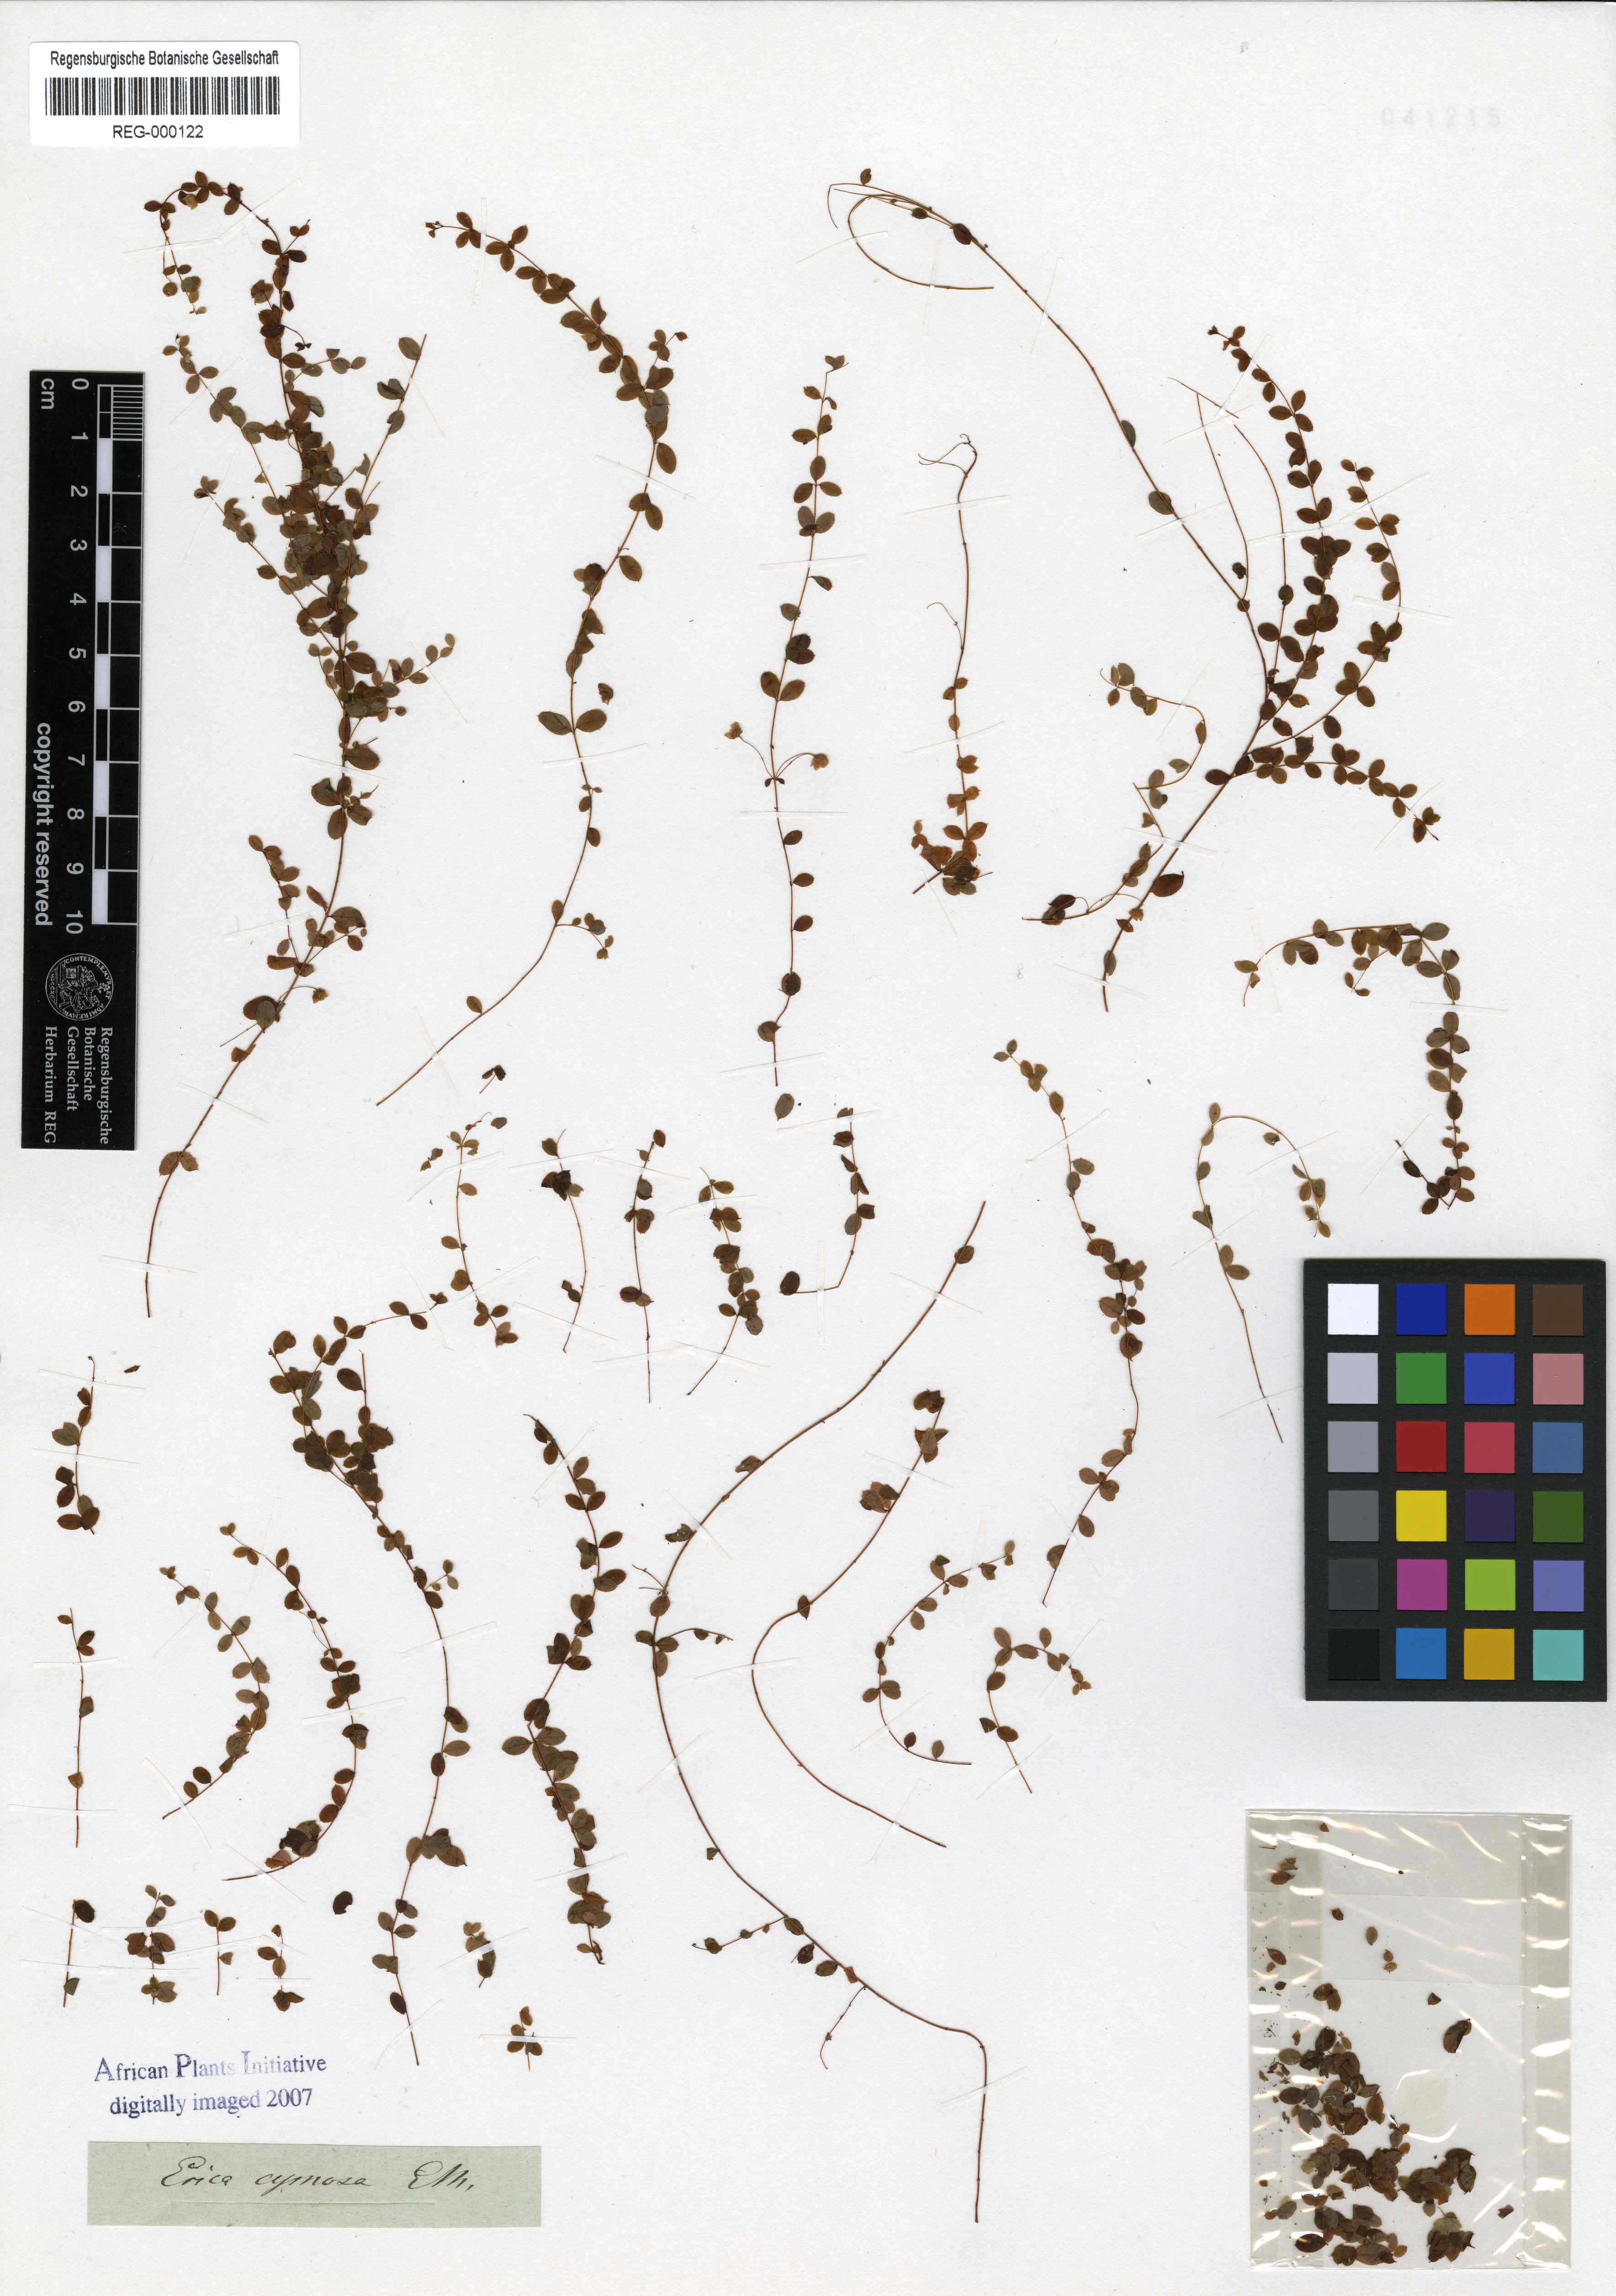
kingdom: Plantae
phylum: Tracheophyta
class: Magnoliopsida
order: Ericales
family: Ericaceae
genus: Erica
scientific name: Erica cymosa
